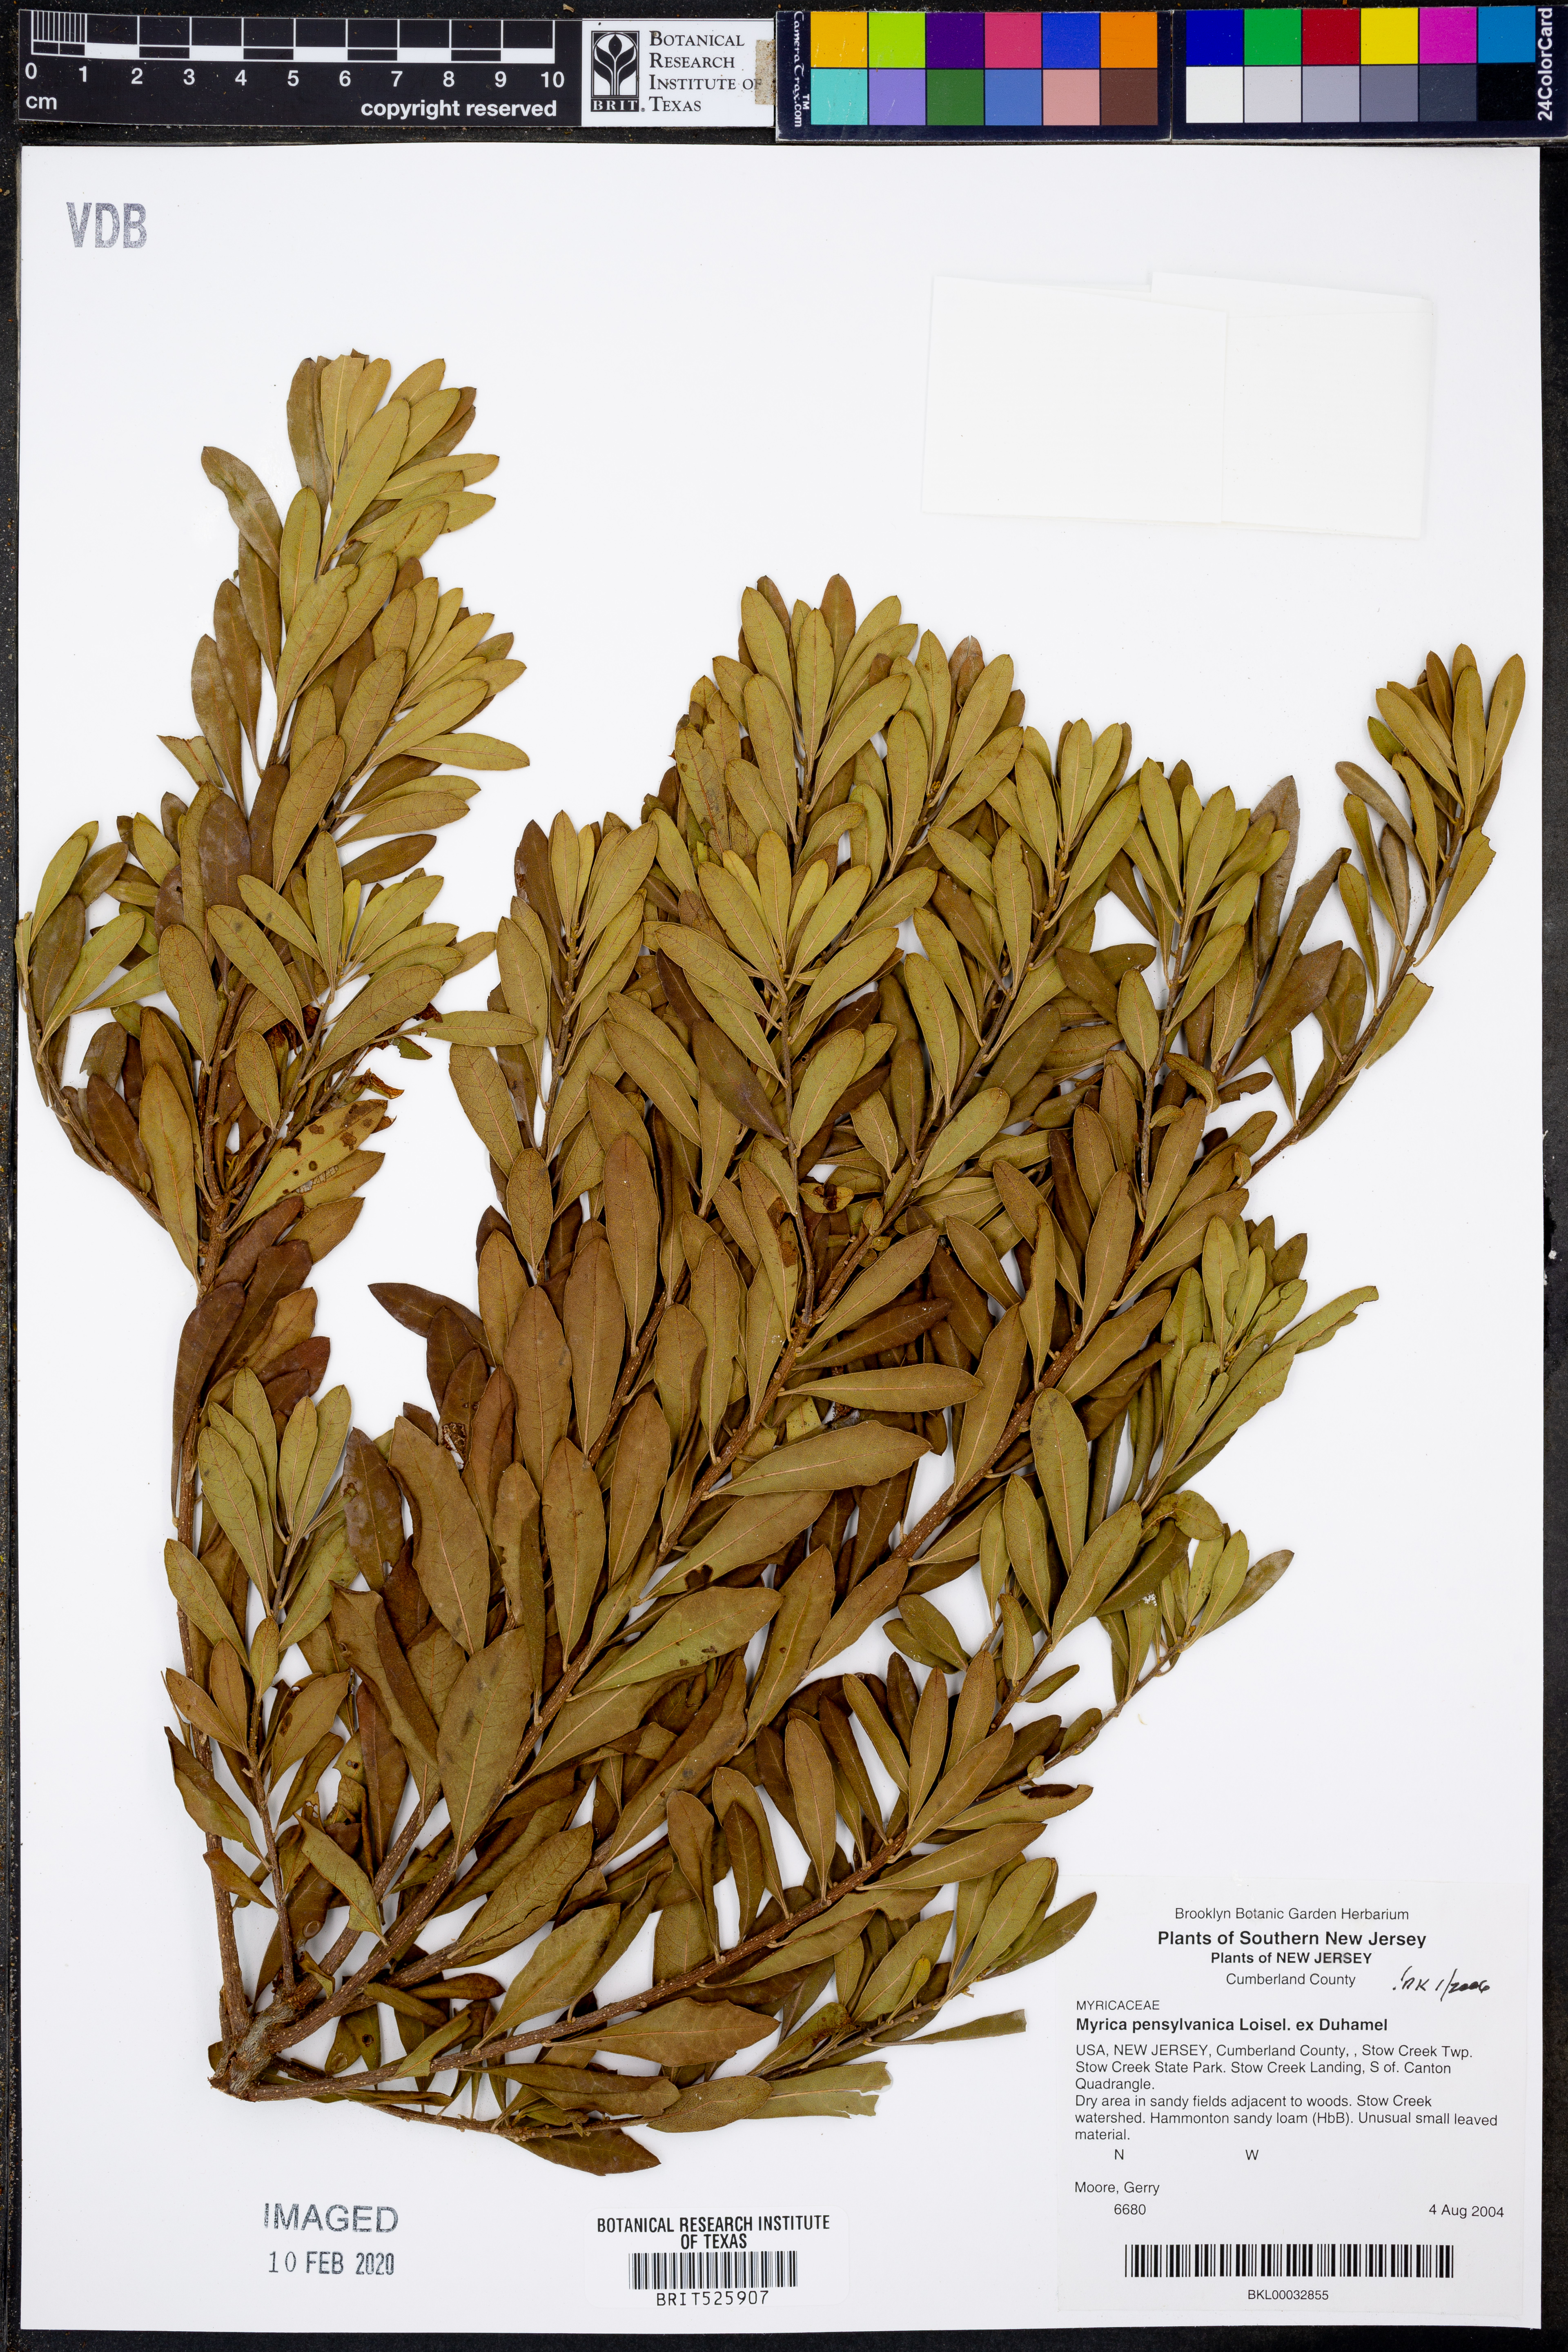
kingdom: Plantae
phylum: Tracheophyta
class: Magnoliopsida
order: Fagales
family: Myricaceae
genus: Morella
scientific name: Morella pensylvanica
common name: Northern bayberry
